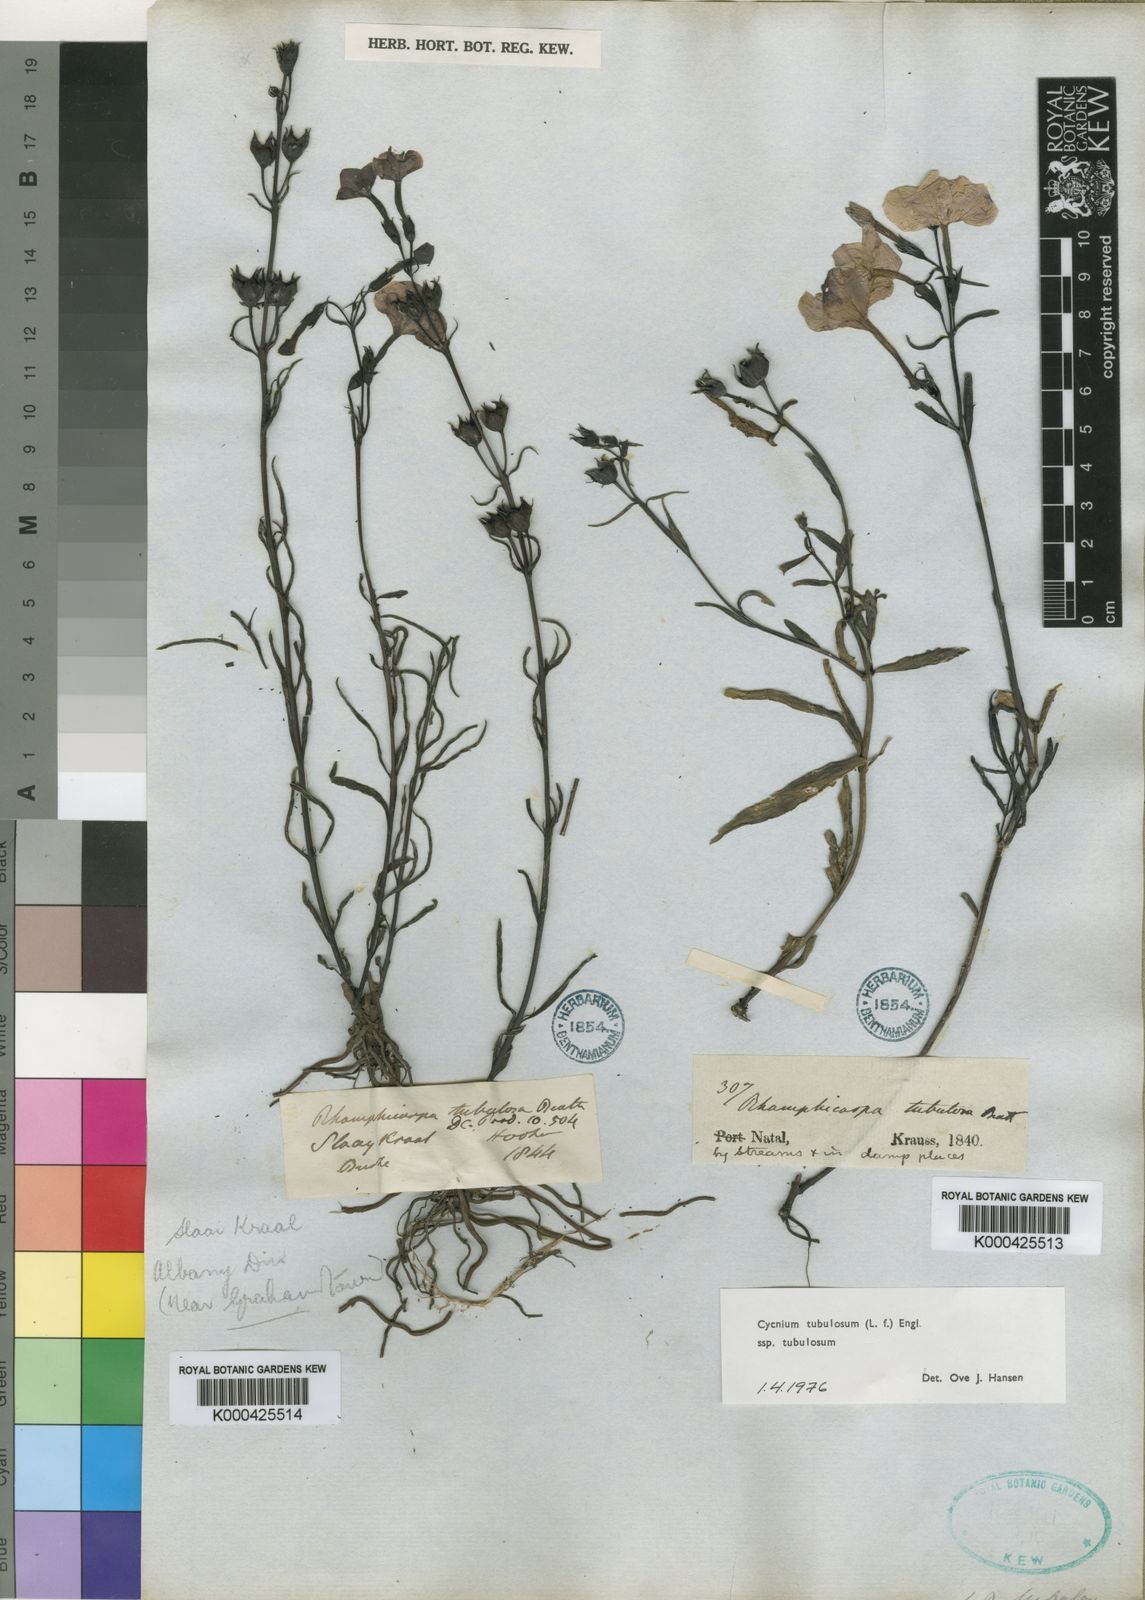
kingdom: Plantae
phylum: Tracheophyta
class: Magnoliopsida
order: Lamiales
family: Orobanchaceae
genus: Cycnium
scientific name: Cycnium tubulosum
